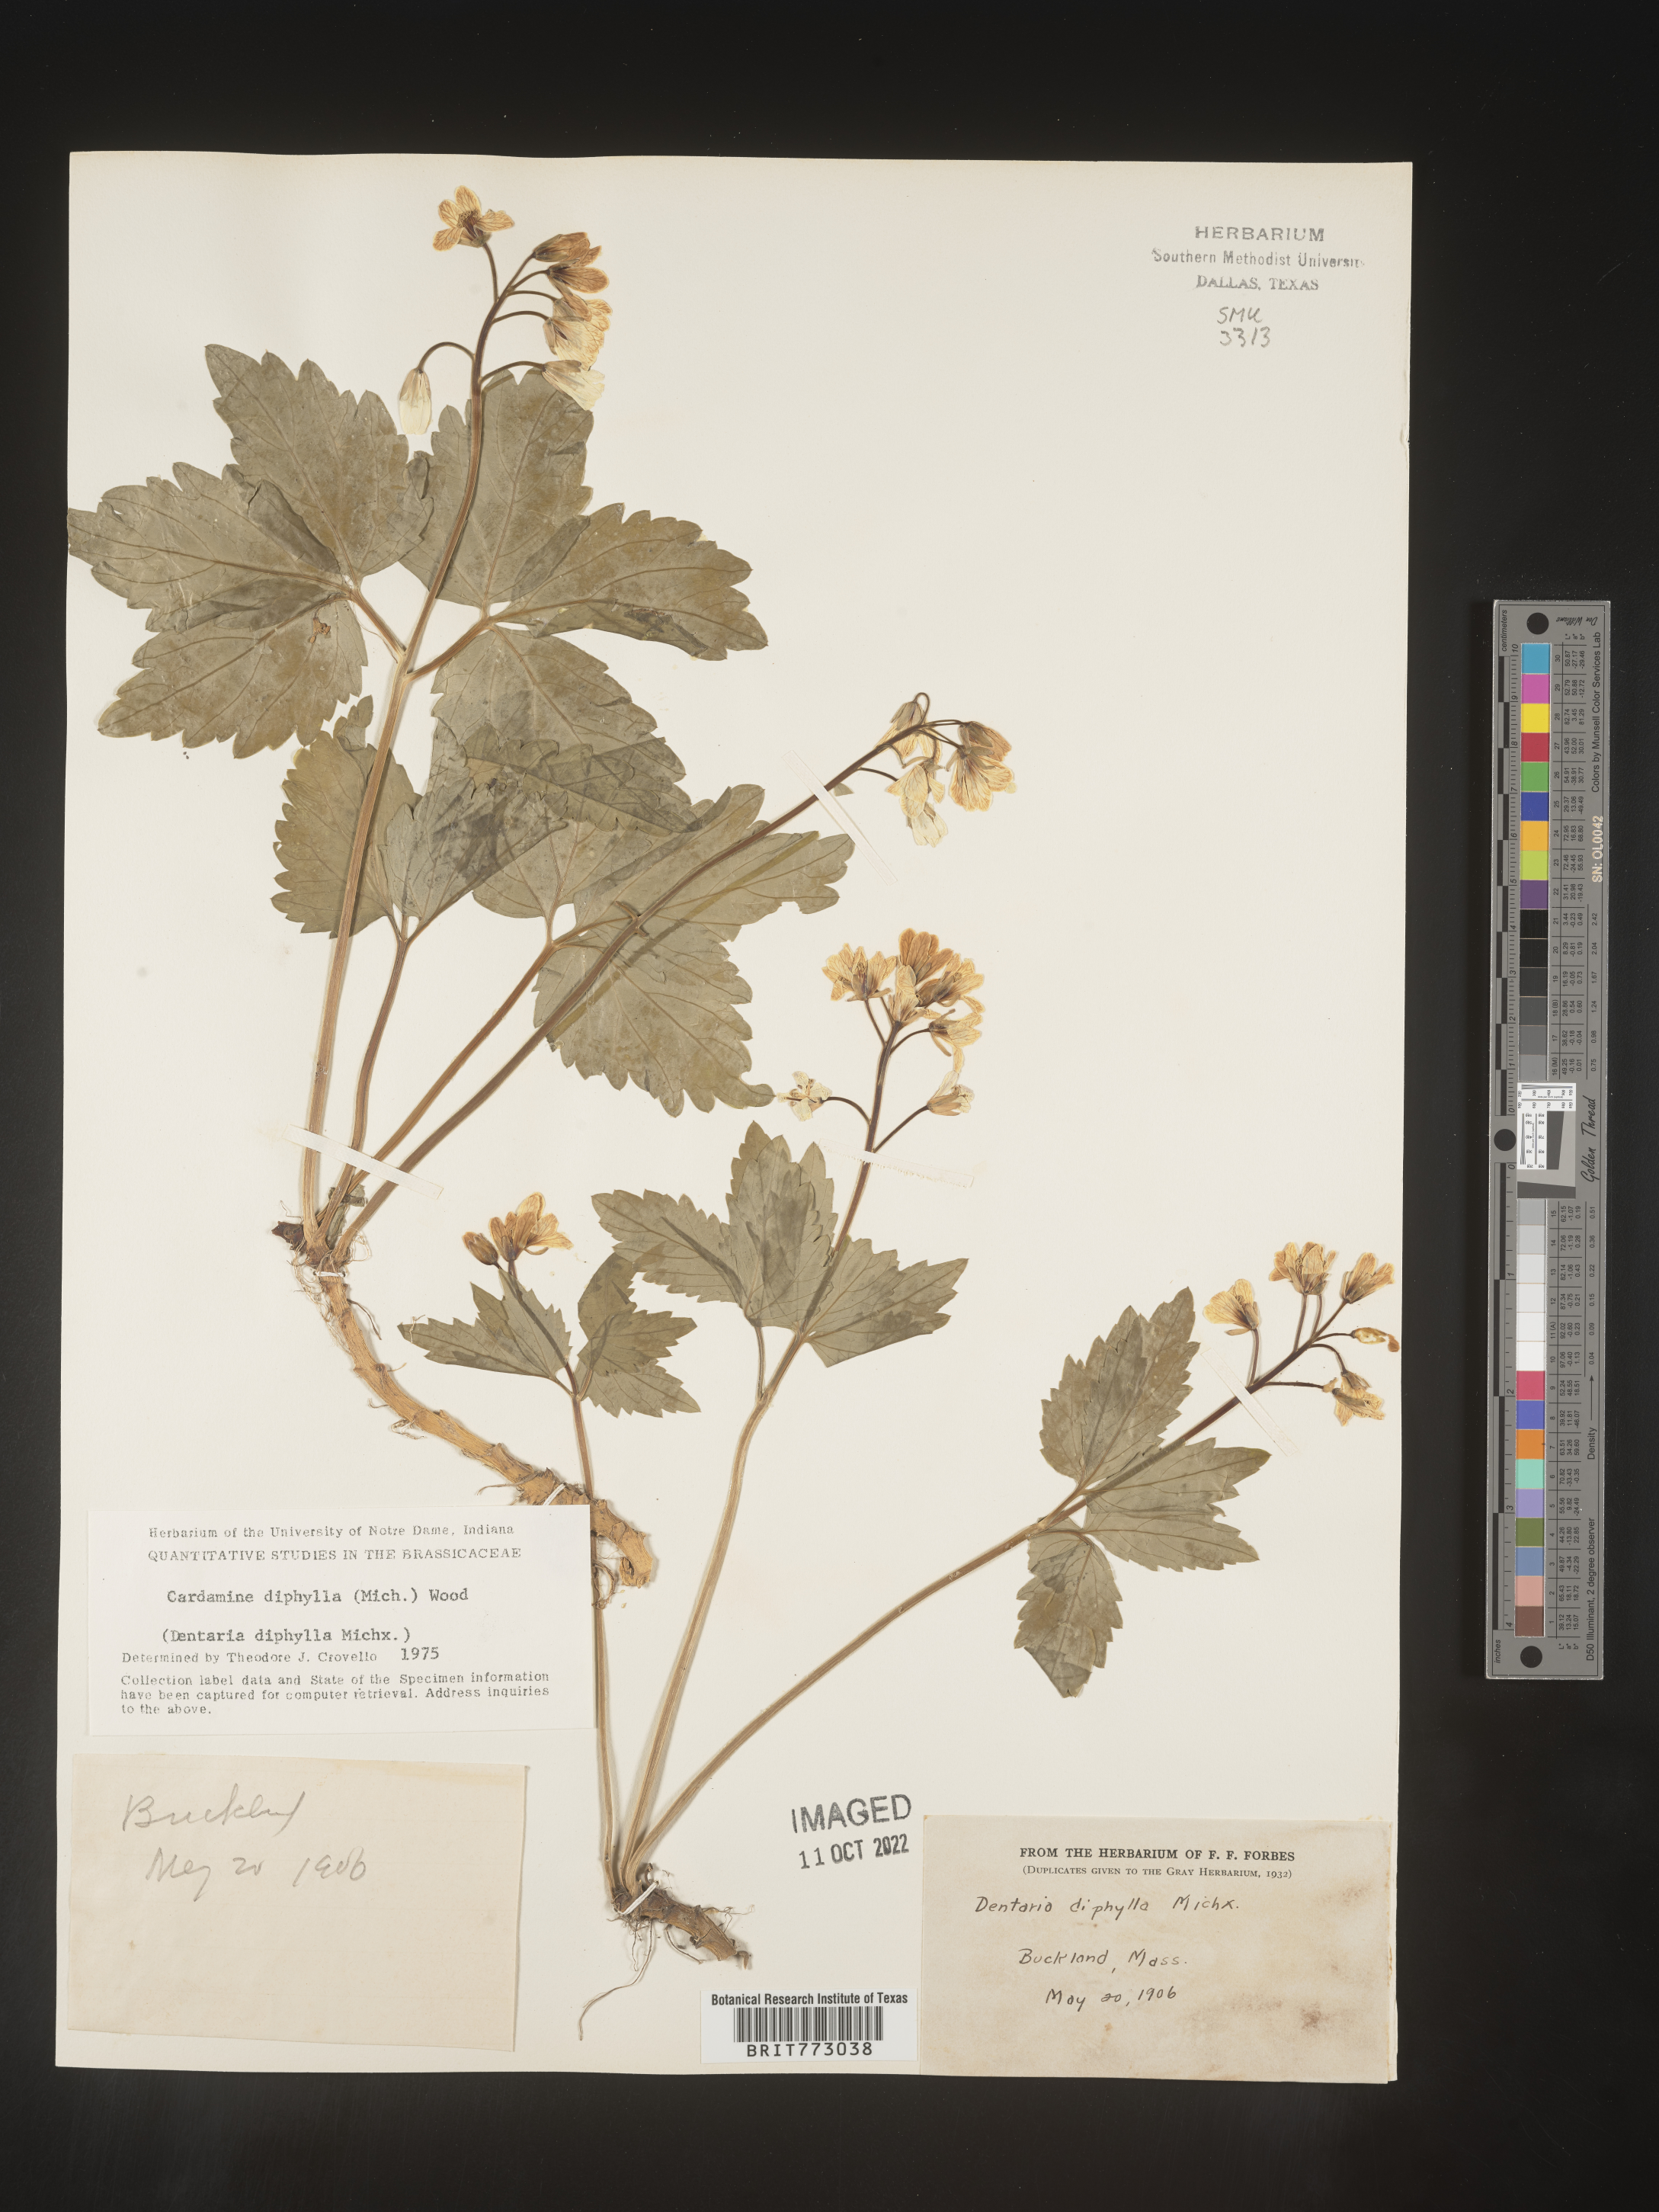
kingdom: Plantae
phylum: Tracheophyta
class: Magnoliopsida
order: Brassicales
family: Brassicaceae
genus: Cardamine
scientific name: Cardamine diphylla
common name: Broad-leaved toothwort
